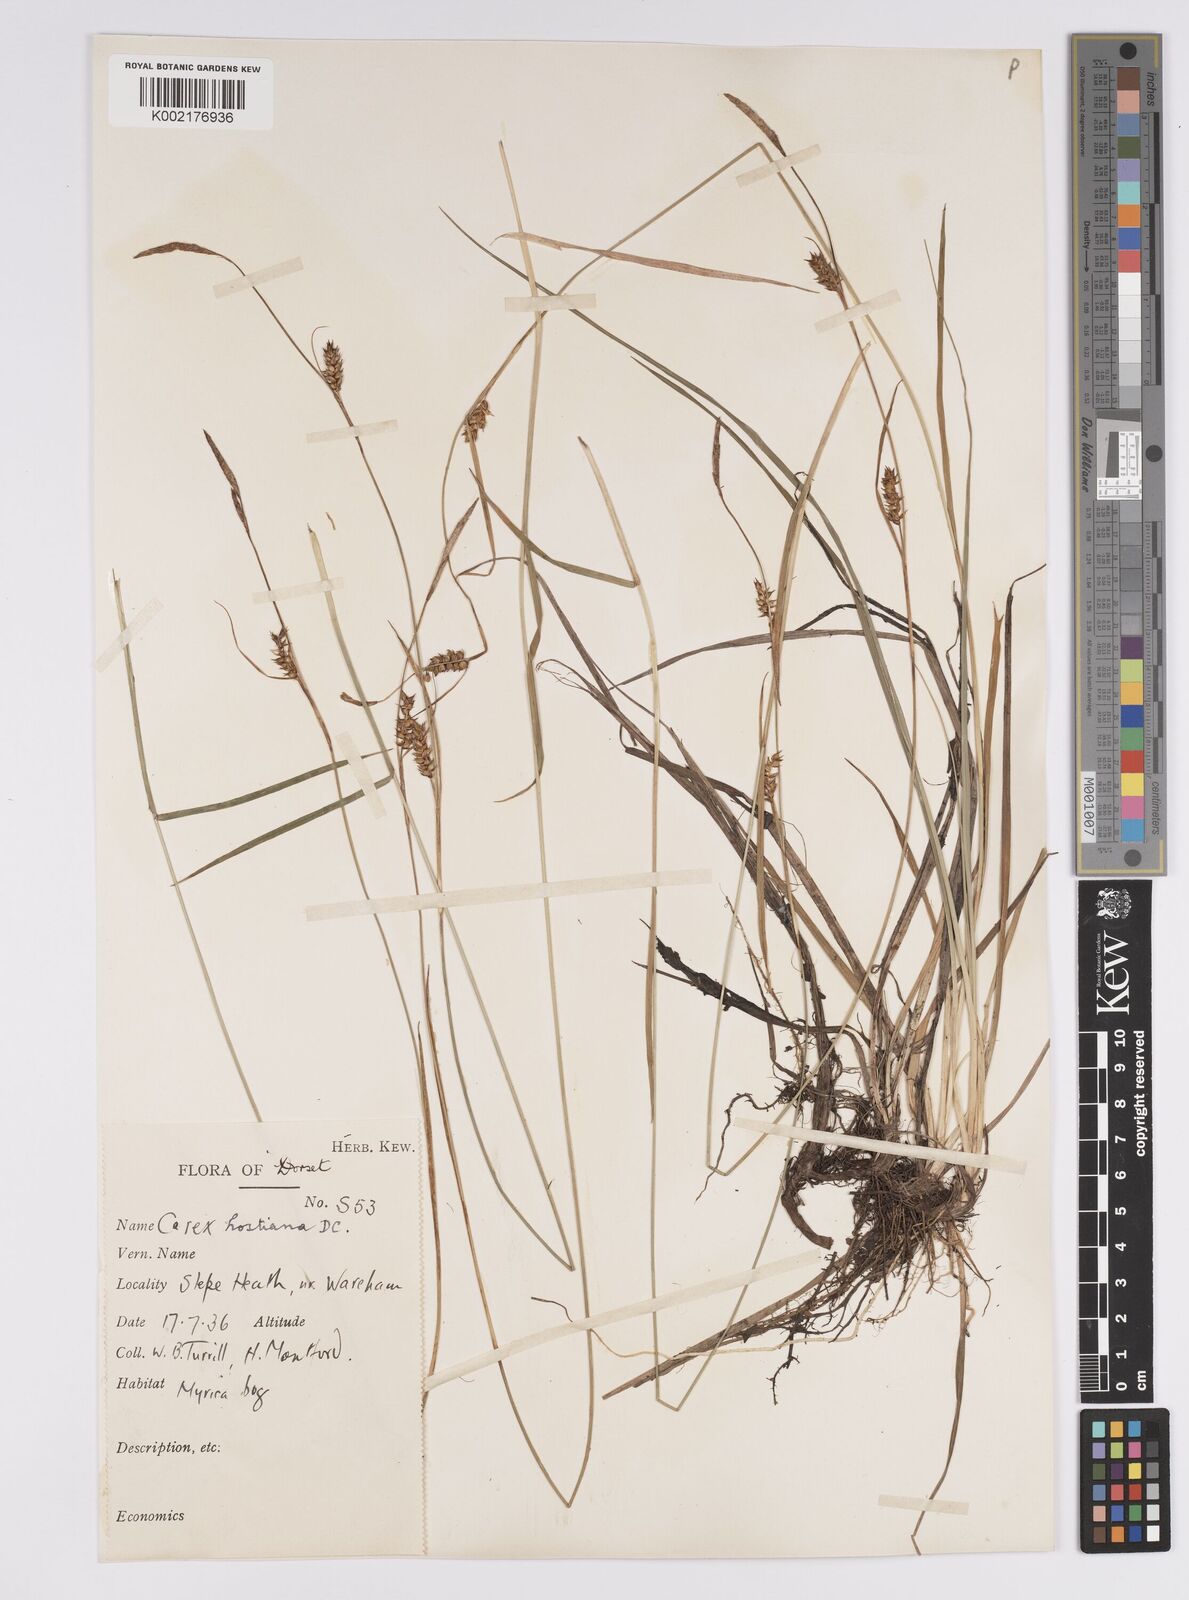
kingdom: Plantae
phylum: Tracheophyta
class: Liliopsida
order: Poales
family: Cyperaceae
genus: Carex
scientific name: Carex hostiana
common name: Tawny sedge
